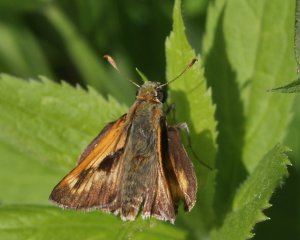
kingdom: Animalia
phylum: Arthropoda
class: Insecta
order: Lepidoptera
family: Hesperiidae
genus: Polites
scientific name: Polites
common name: Long Dash Skipper
